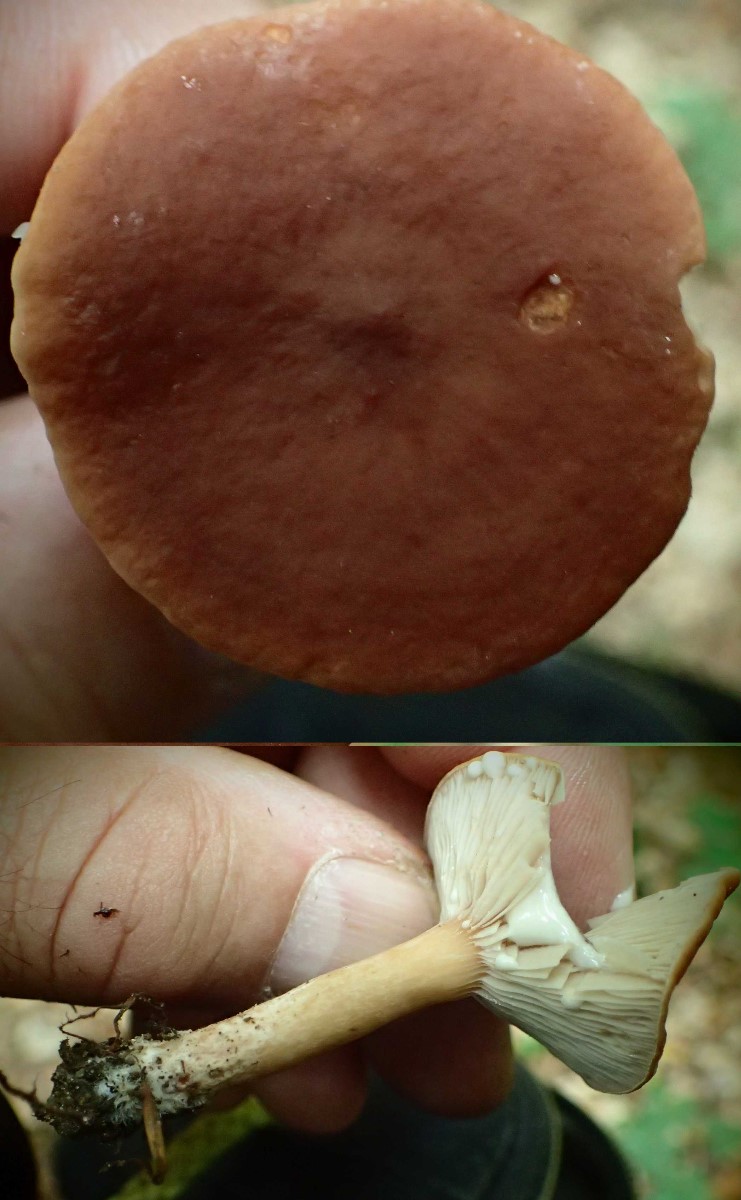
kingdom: Fungi
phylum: Basidiomycota
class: Agaricomycetes
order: Russulales
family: Russulaceae
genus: Lactarius
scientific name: Lactarius
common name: mælkehat
